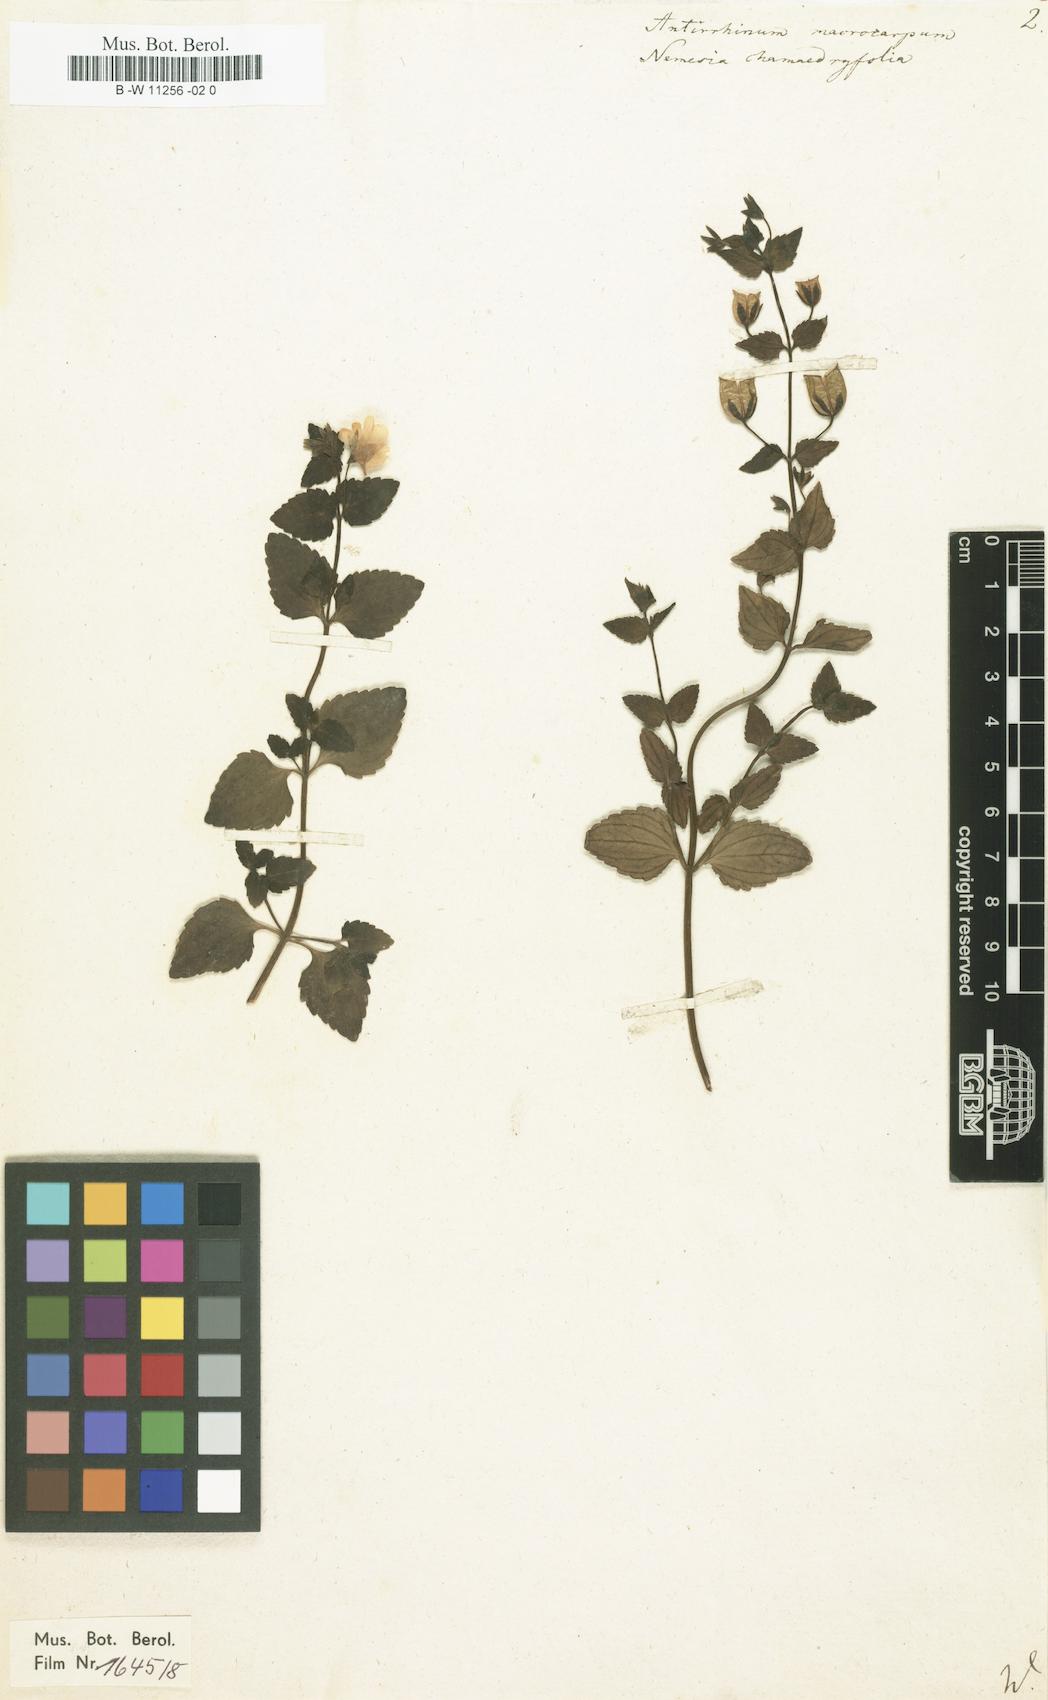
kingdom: Plantae
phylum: Tracheophyta
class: Magnoliopsida
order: Lamiales
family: Scrophulariaceae
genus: Nemesia
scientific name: Nemesia macrocarpa
